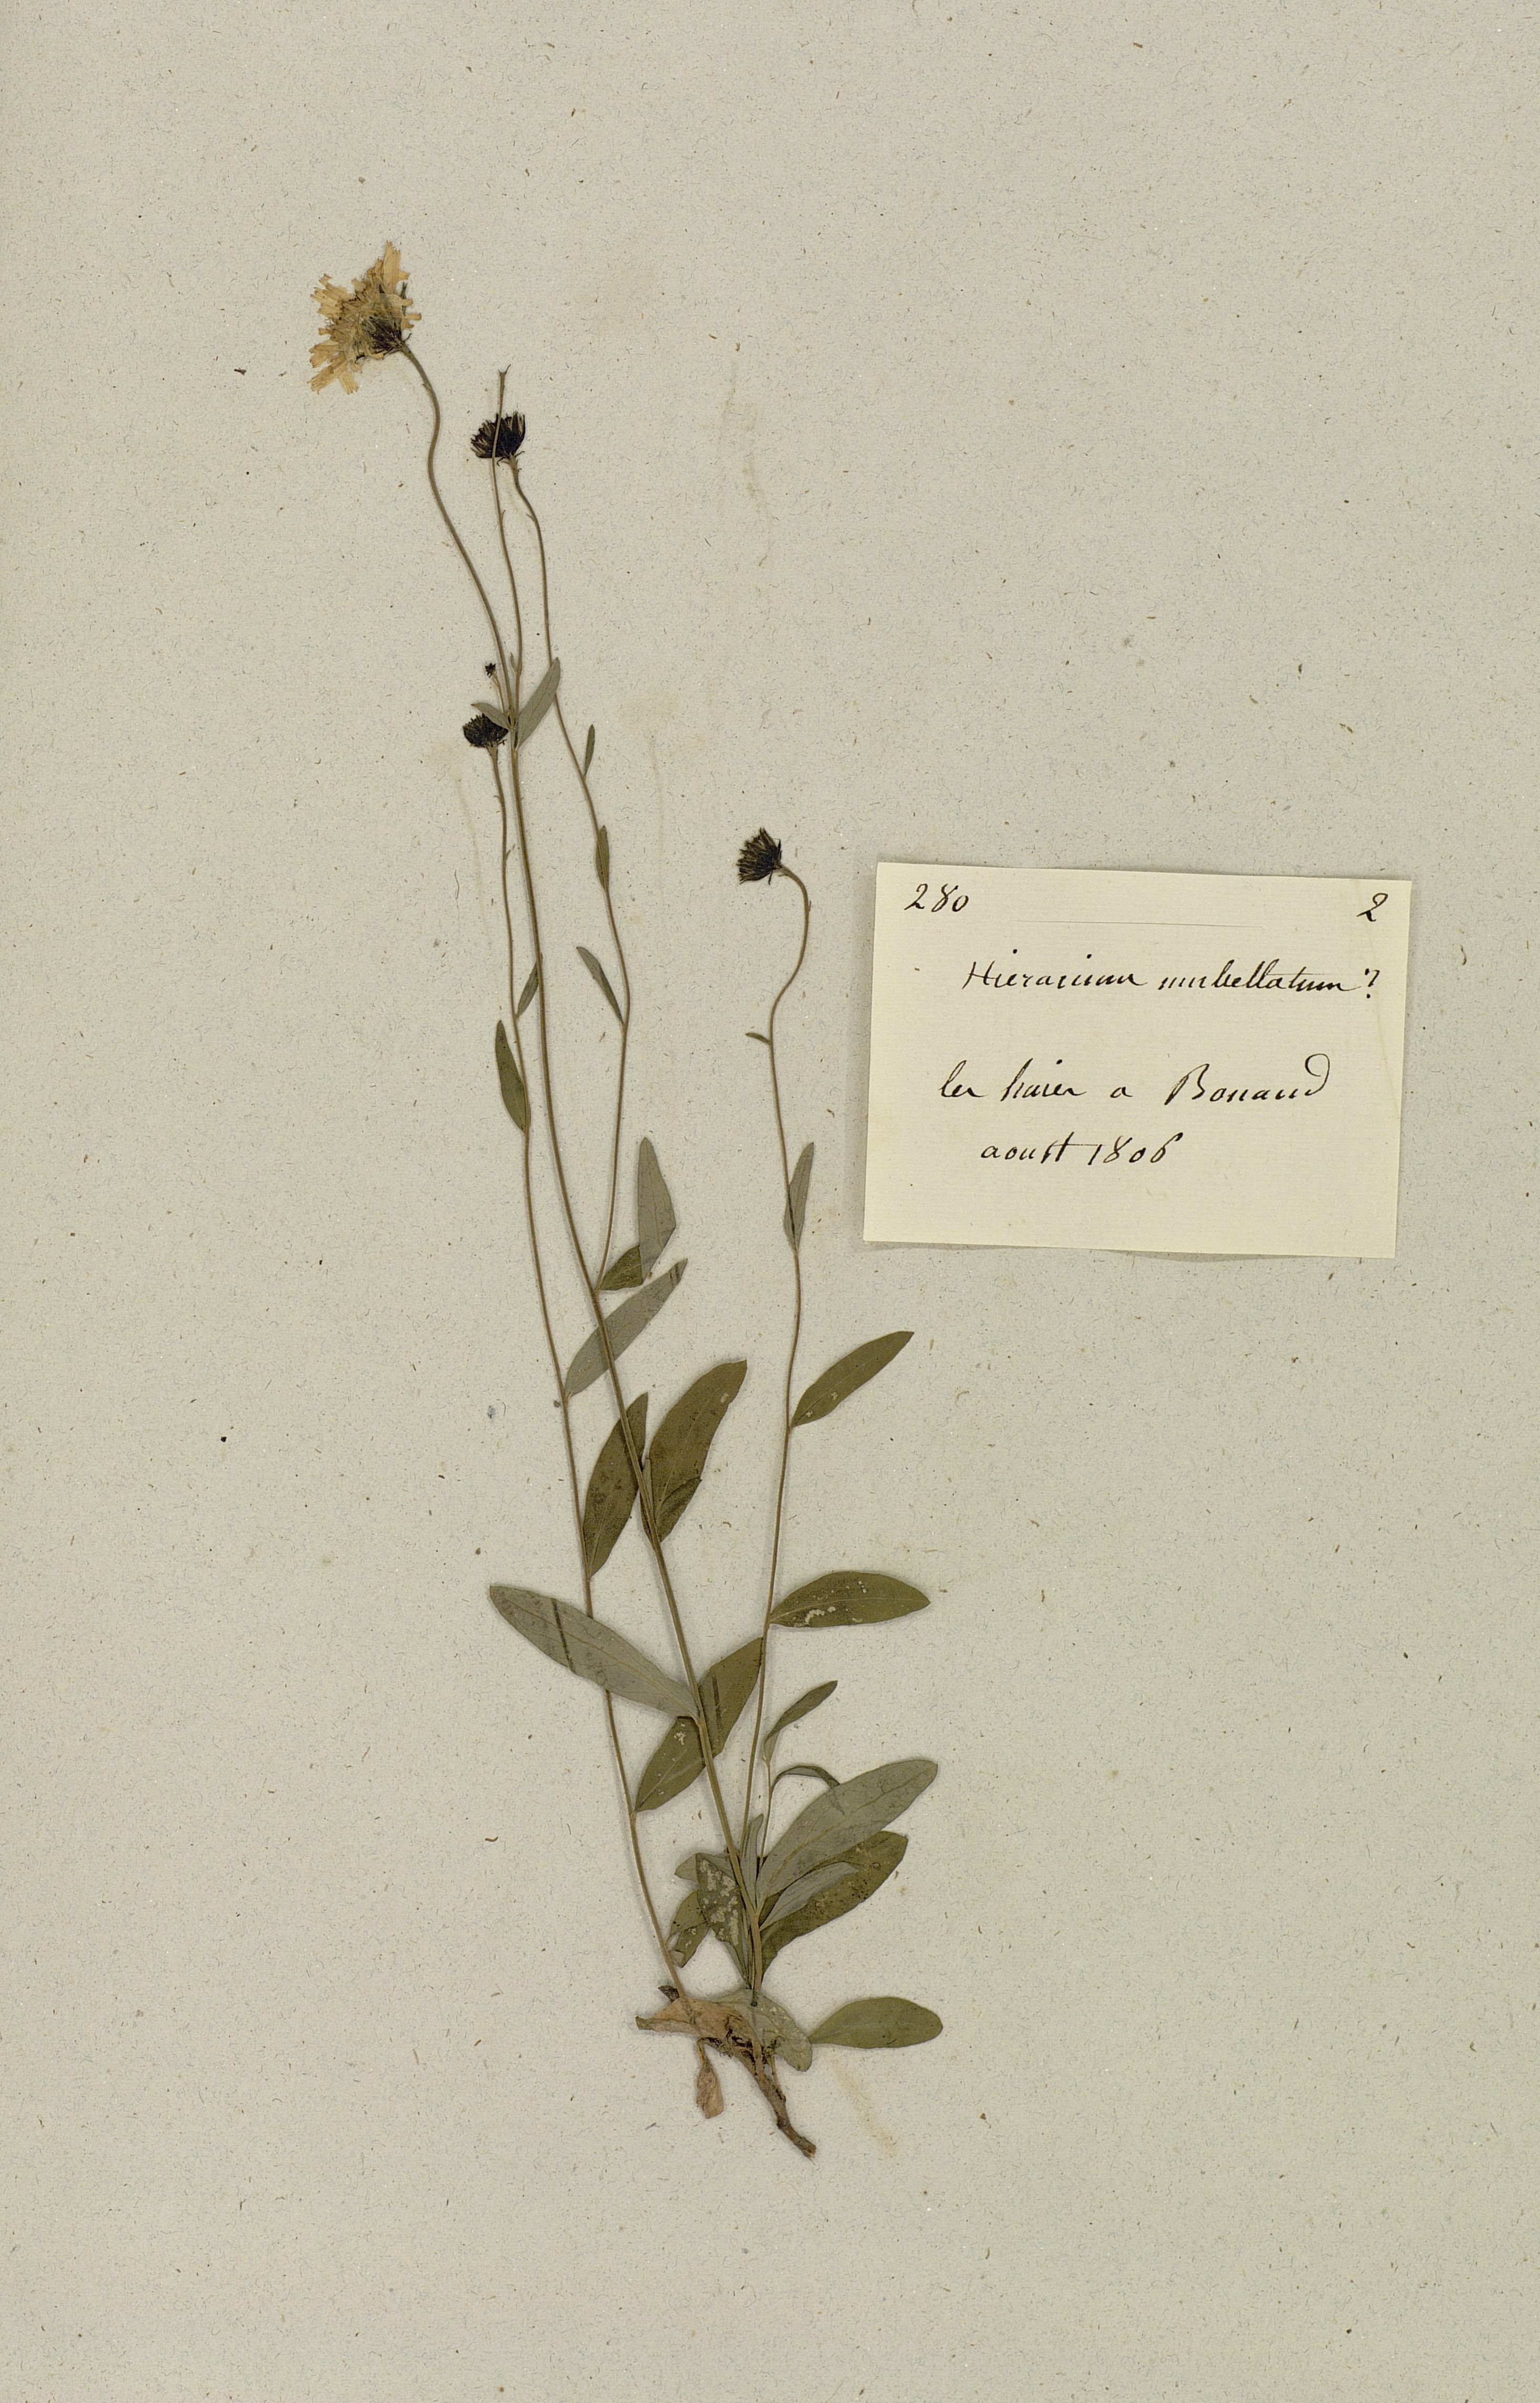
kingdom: Plantae
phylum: Tracheophyta
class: Magnoliopsida
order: Asterales
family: Asteraceae
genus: Hieracium
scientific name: Hieracium umbellatum
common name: Northern hawkweed
